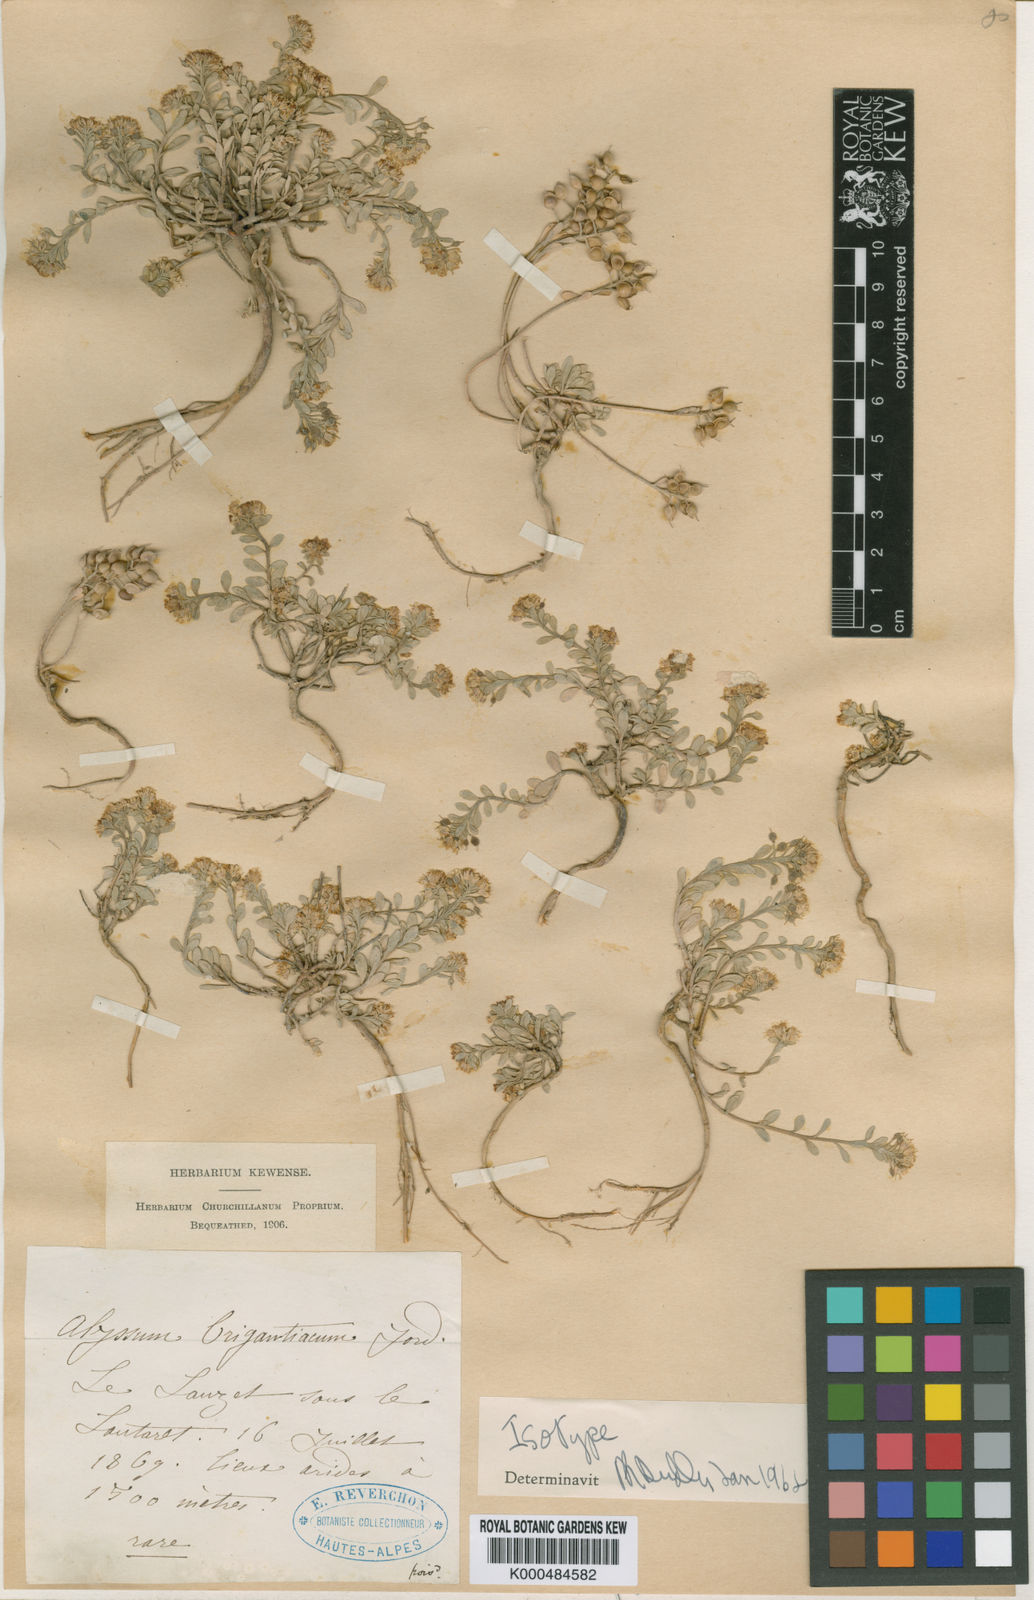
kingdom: Plantae
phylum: Tracheophyta
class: Magnoliopsida
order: Brassicales
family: Brassicaceae
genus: Alyssum
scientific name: Alyssum cuneifolium
